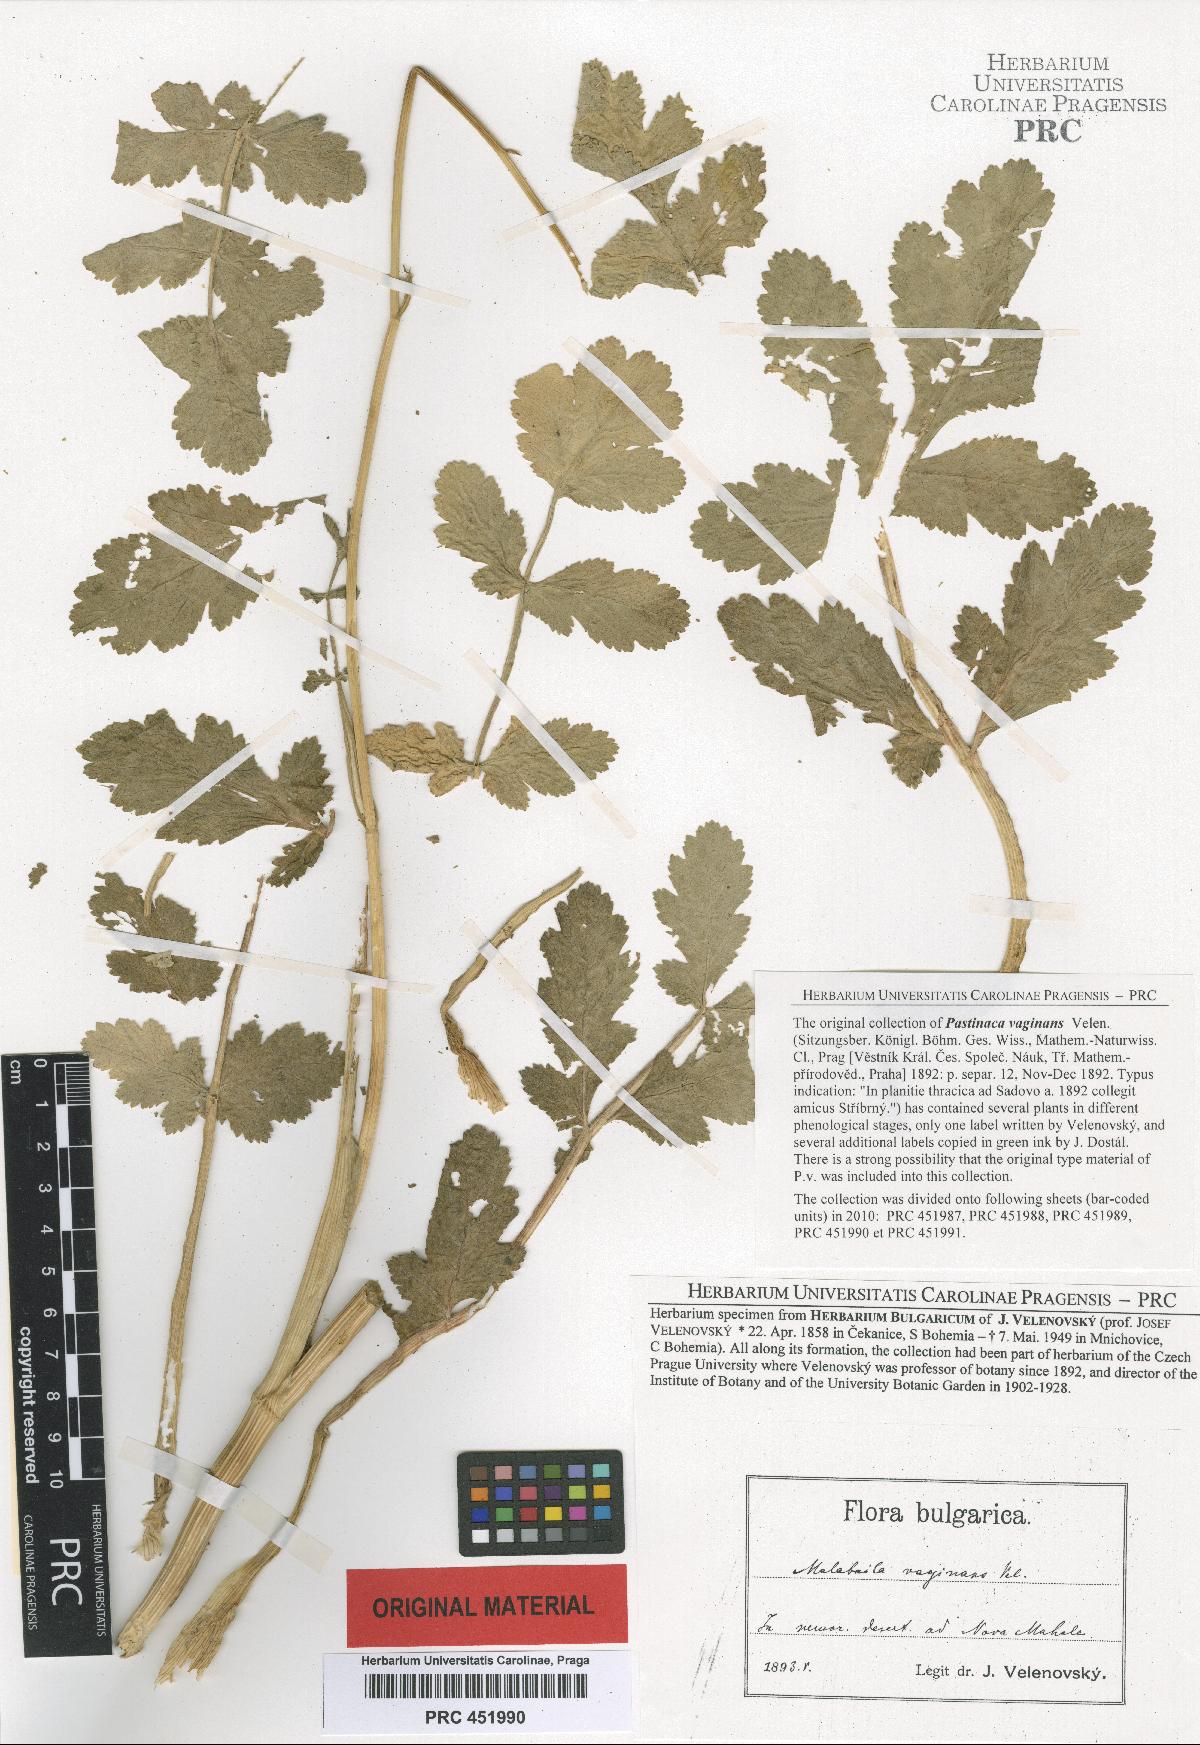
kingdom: Plantae
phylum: Tracheophyta
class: Magnoliopsida
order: Apiales
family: Apiaceae
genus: Pastinaca
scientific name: Pastinaca clausii
